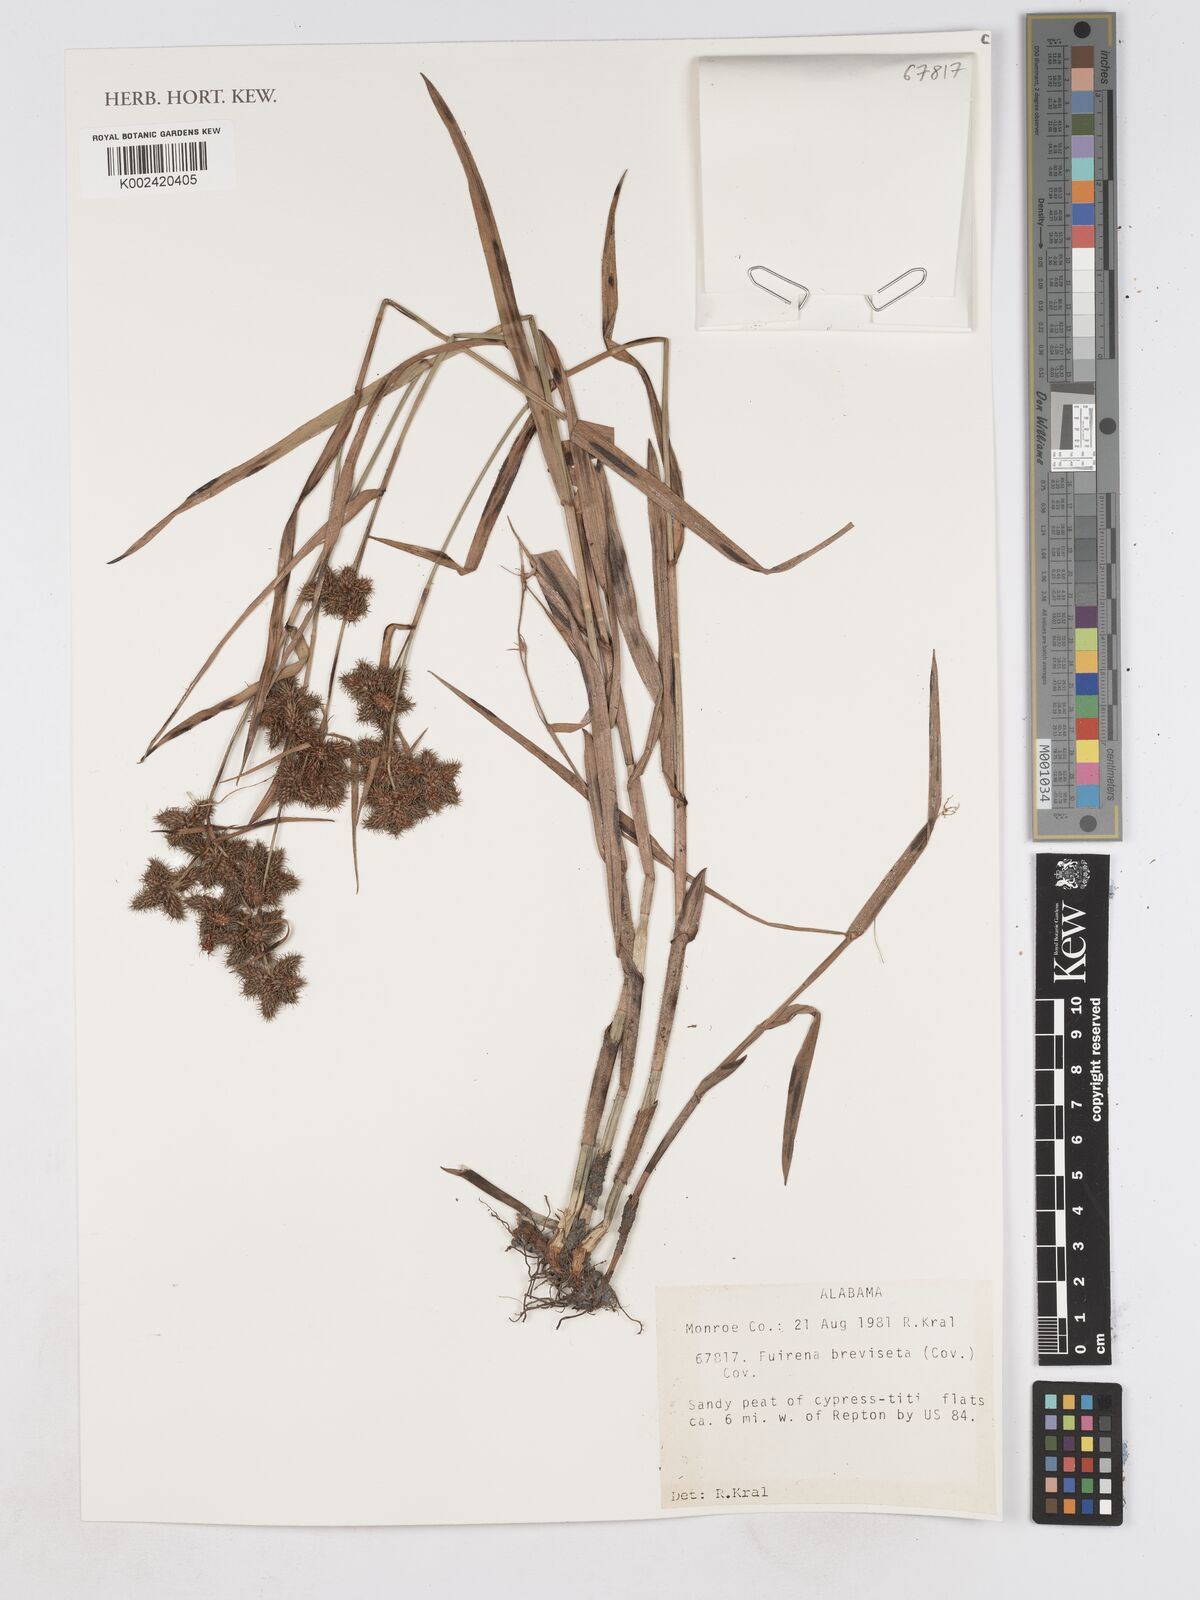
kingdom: Plantae
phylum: Tracheophyta
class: Liliopsida
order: Poales
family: Cyperaceae
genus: Fuirena
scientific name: Fuirena breviseta
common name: Saltmarsh umbrella sedge
